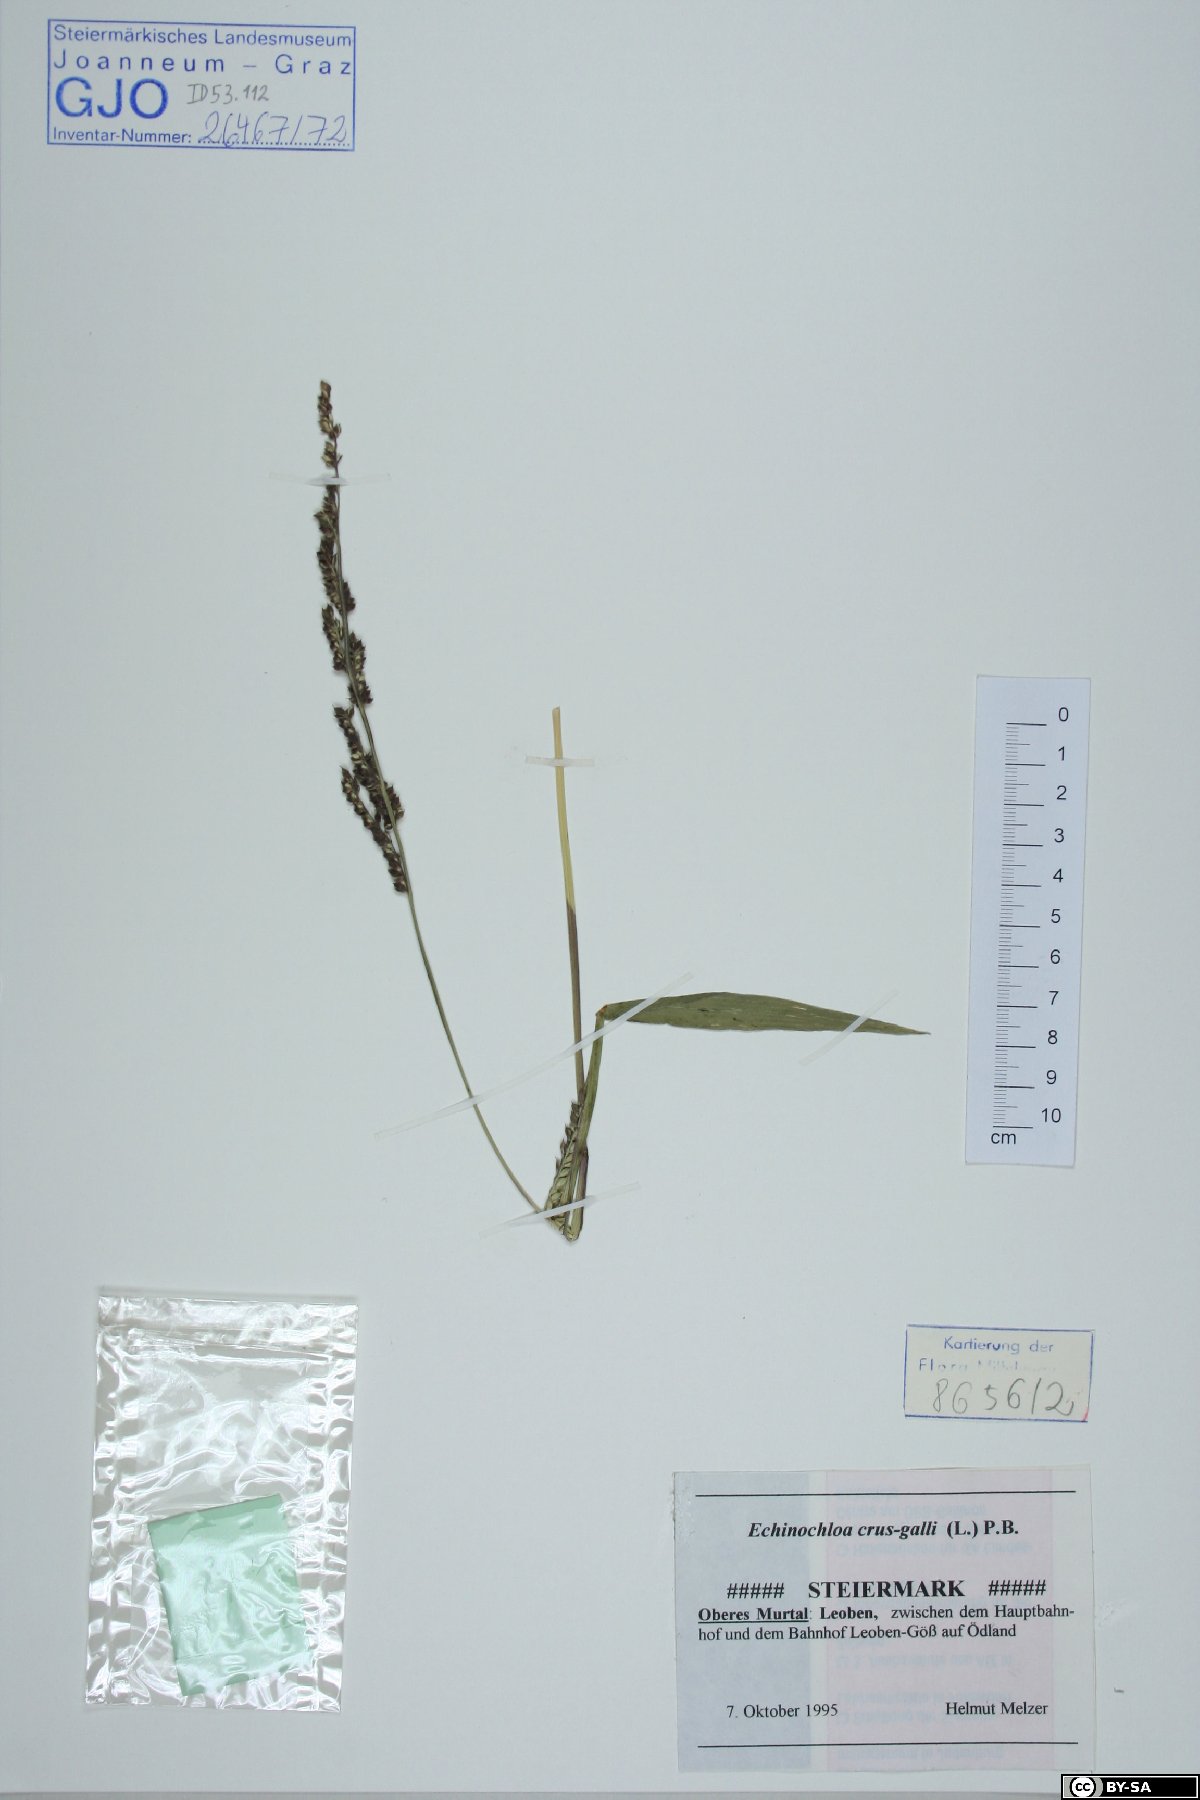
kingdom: Plantae
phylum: Tracheophyta
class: Liliopsida
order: Poales
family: Poaceae
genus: Echinochloa
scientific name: Echinochloa crus-galli
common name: Cockspur
